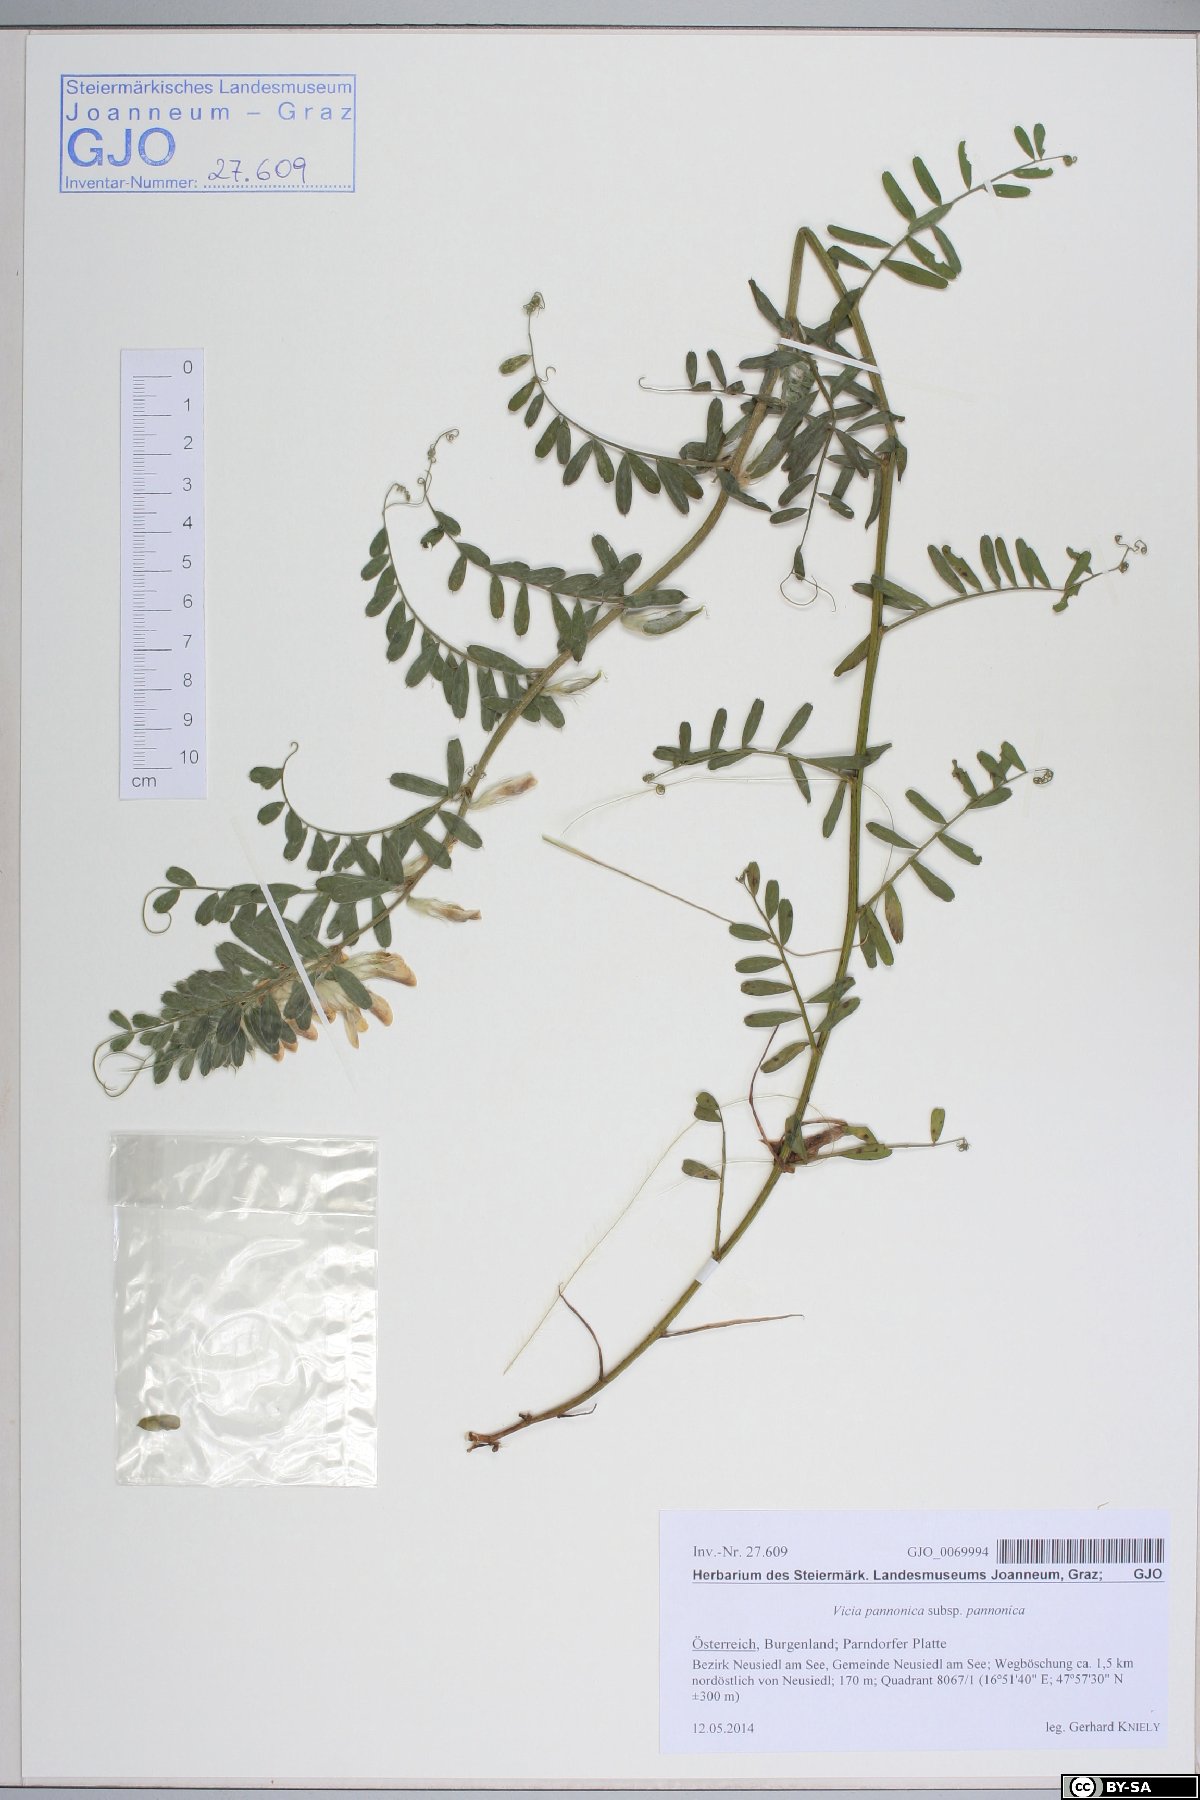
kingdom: Plantae
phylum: Tracheophyta
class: Magnoliopsida
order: Fabales
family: Fabaceae
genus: Vicia
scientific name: Vicia pannonica
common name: Hungarian vetch
